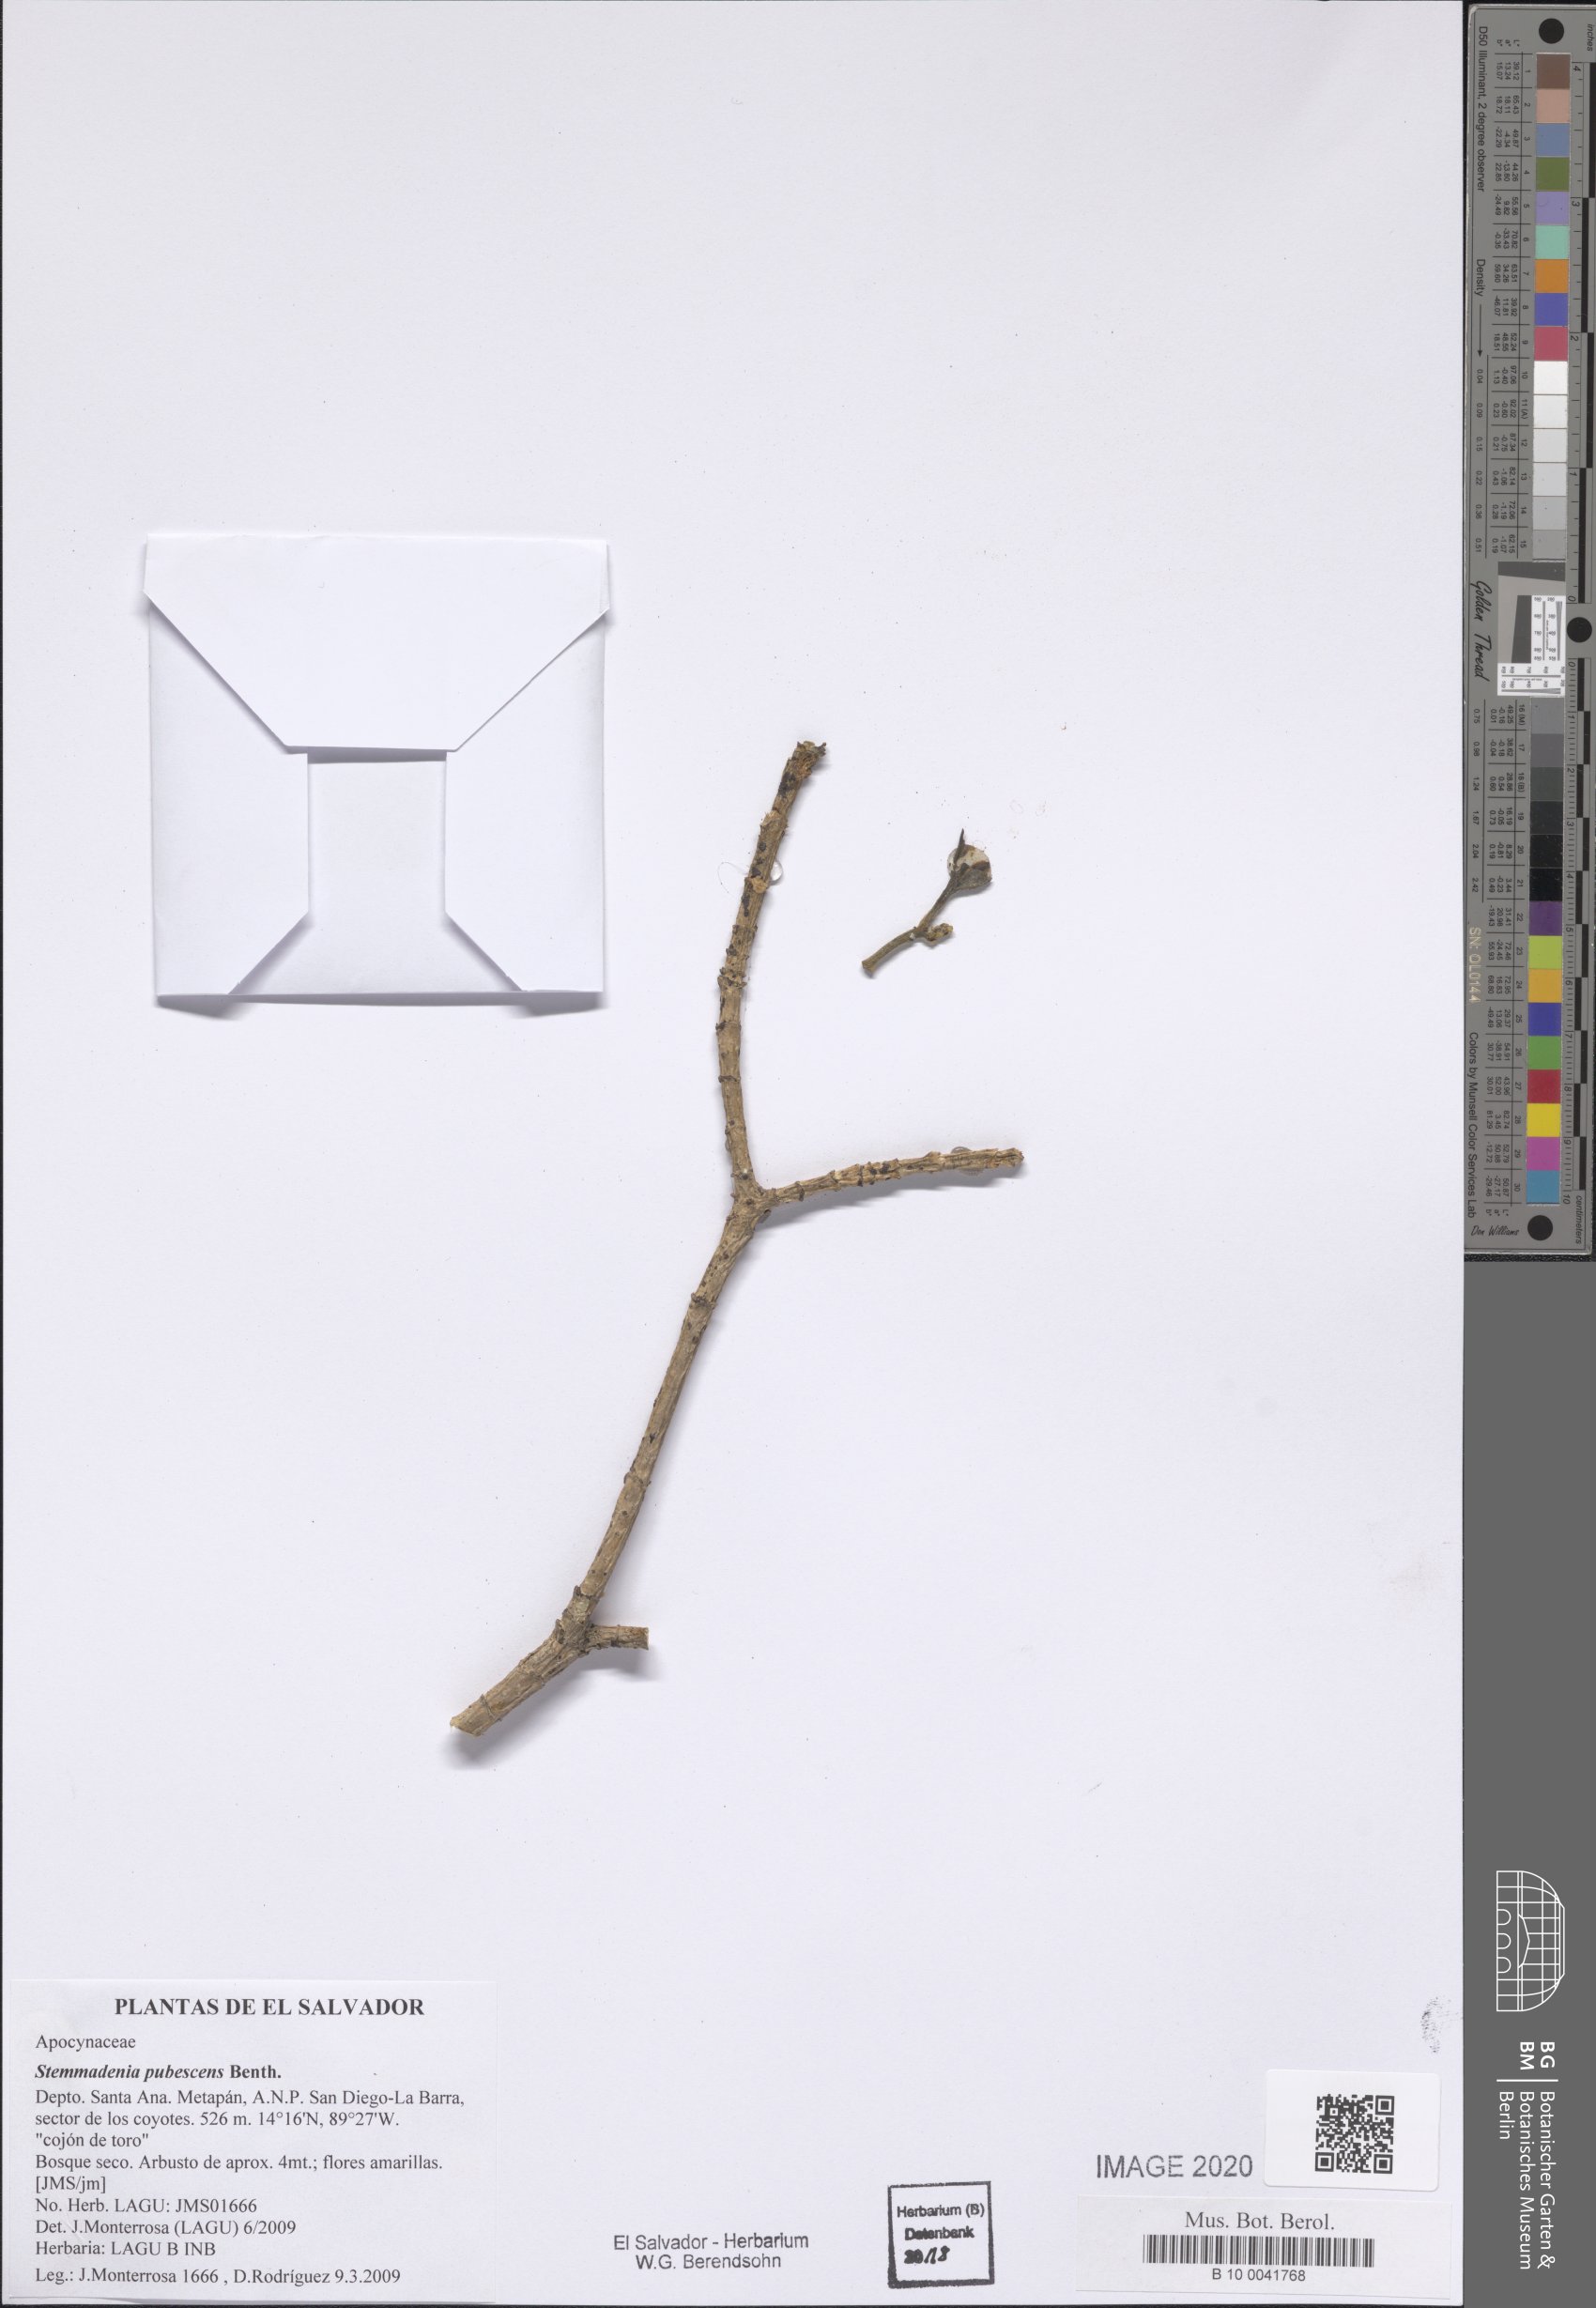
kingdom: Plantae
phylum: Tracheophyta
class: Magnoliopsida
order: Gentianales
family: Apocynaceae
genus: Tabernaemontana
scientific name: Tabernaemontana glabra
